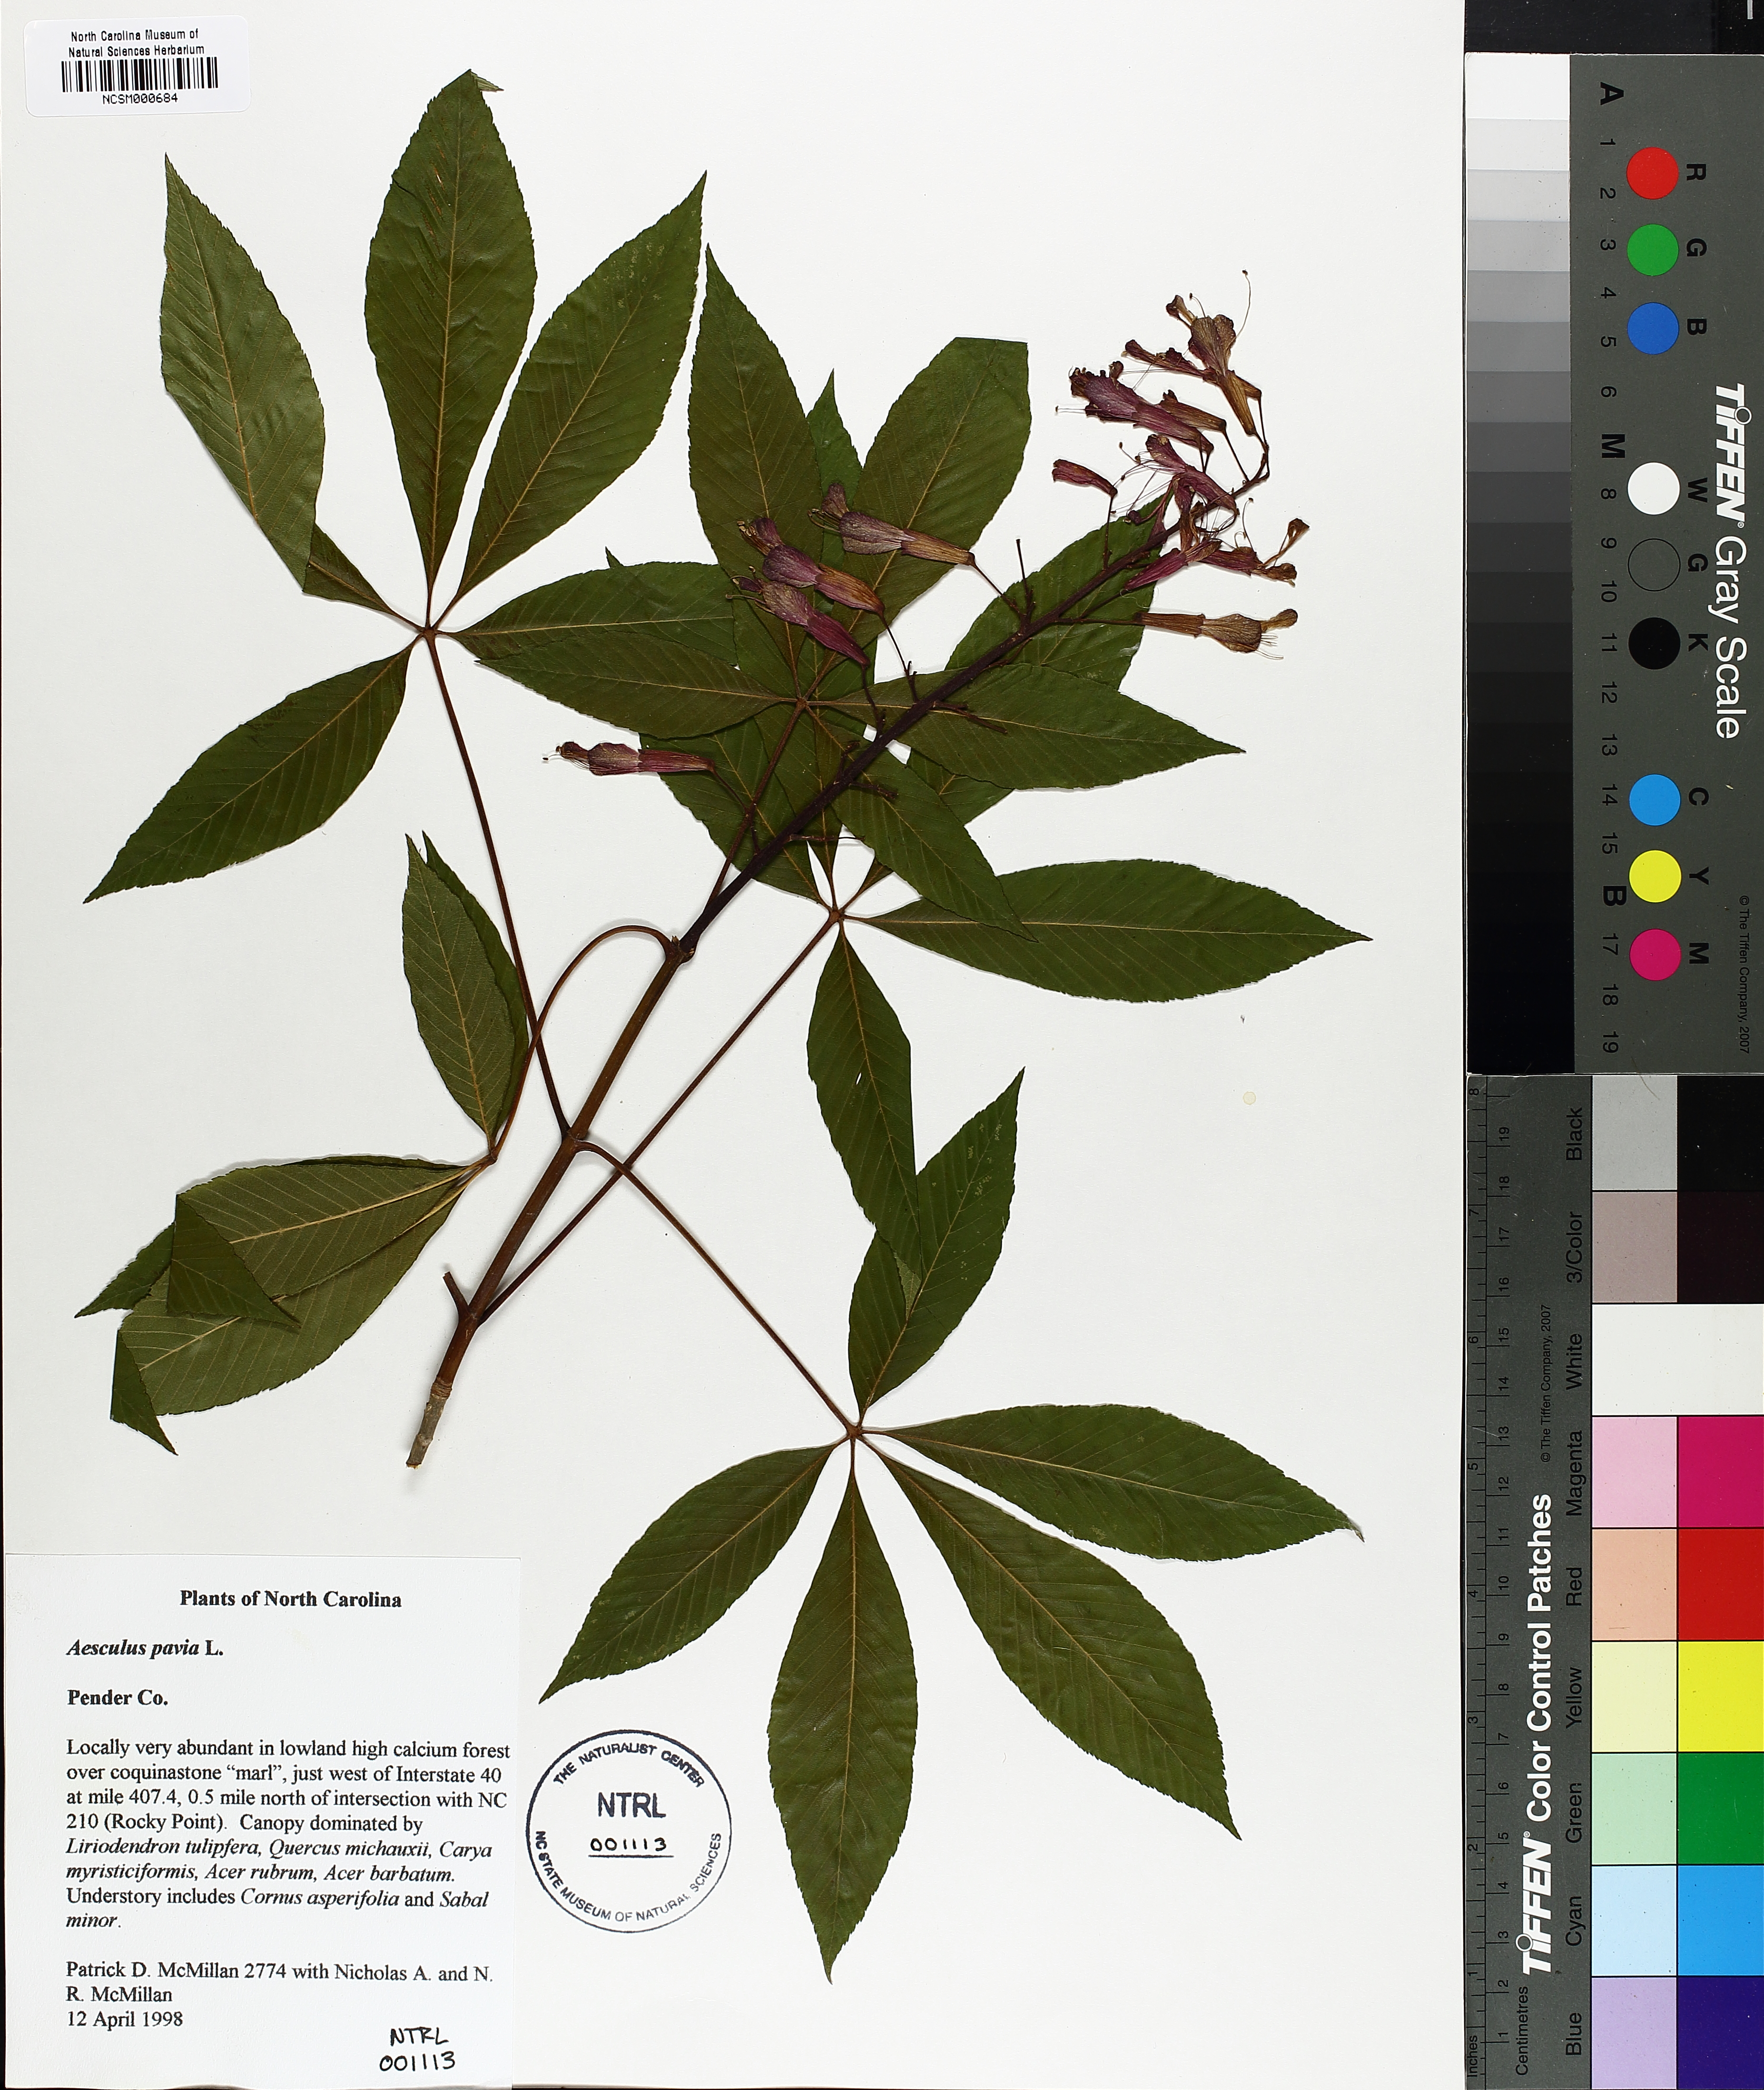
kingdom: Plantae
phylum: Tracheophyta
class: Magnoliopsida
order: Sapindales
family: Sapindaceae
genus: Aesculus
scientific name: Aesculus pavia
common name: Red buckeye
